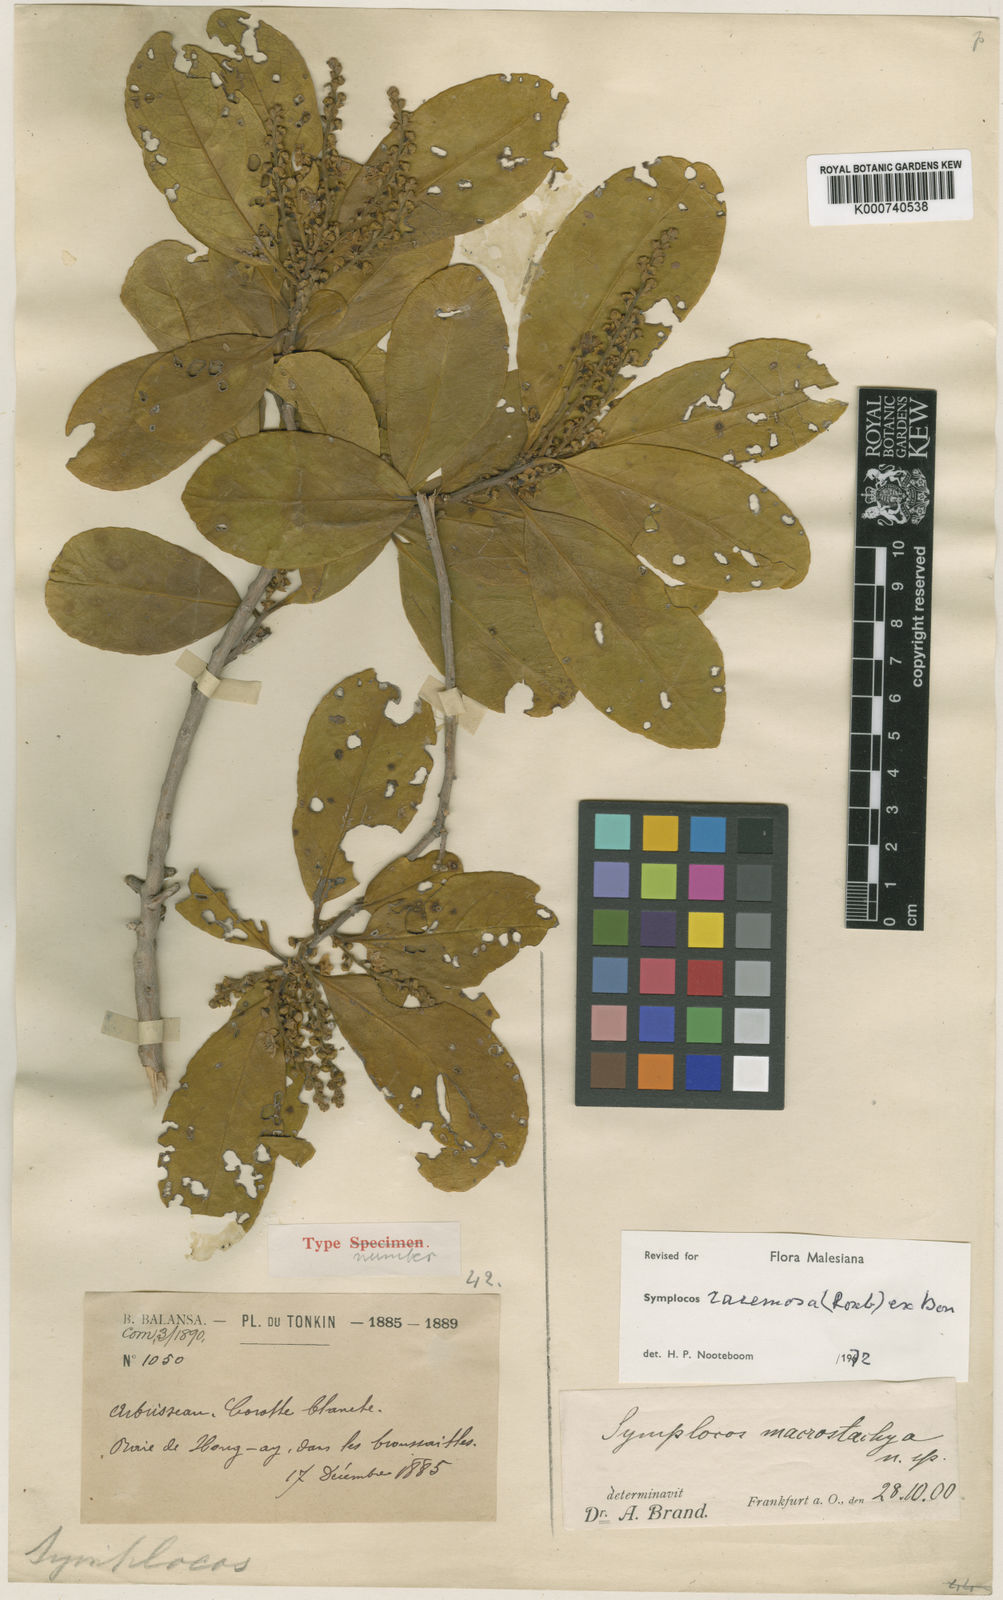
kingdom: Plantae
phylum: Tracheophyta
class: Magnoliopsida
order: Ericales
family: Symplocaceae
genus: Symplocos
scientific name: Symplocos racemosa
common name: Lodhtree
